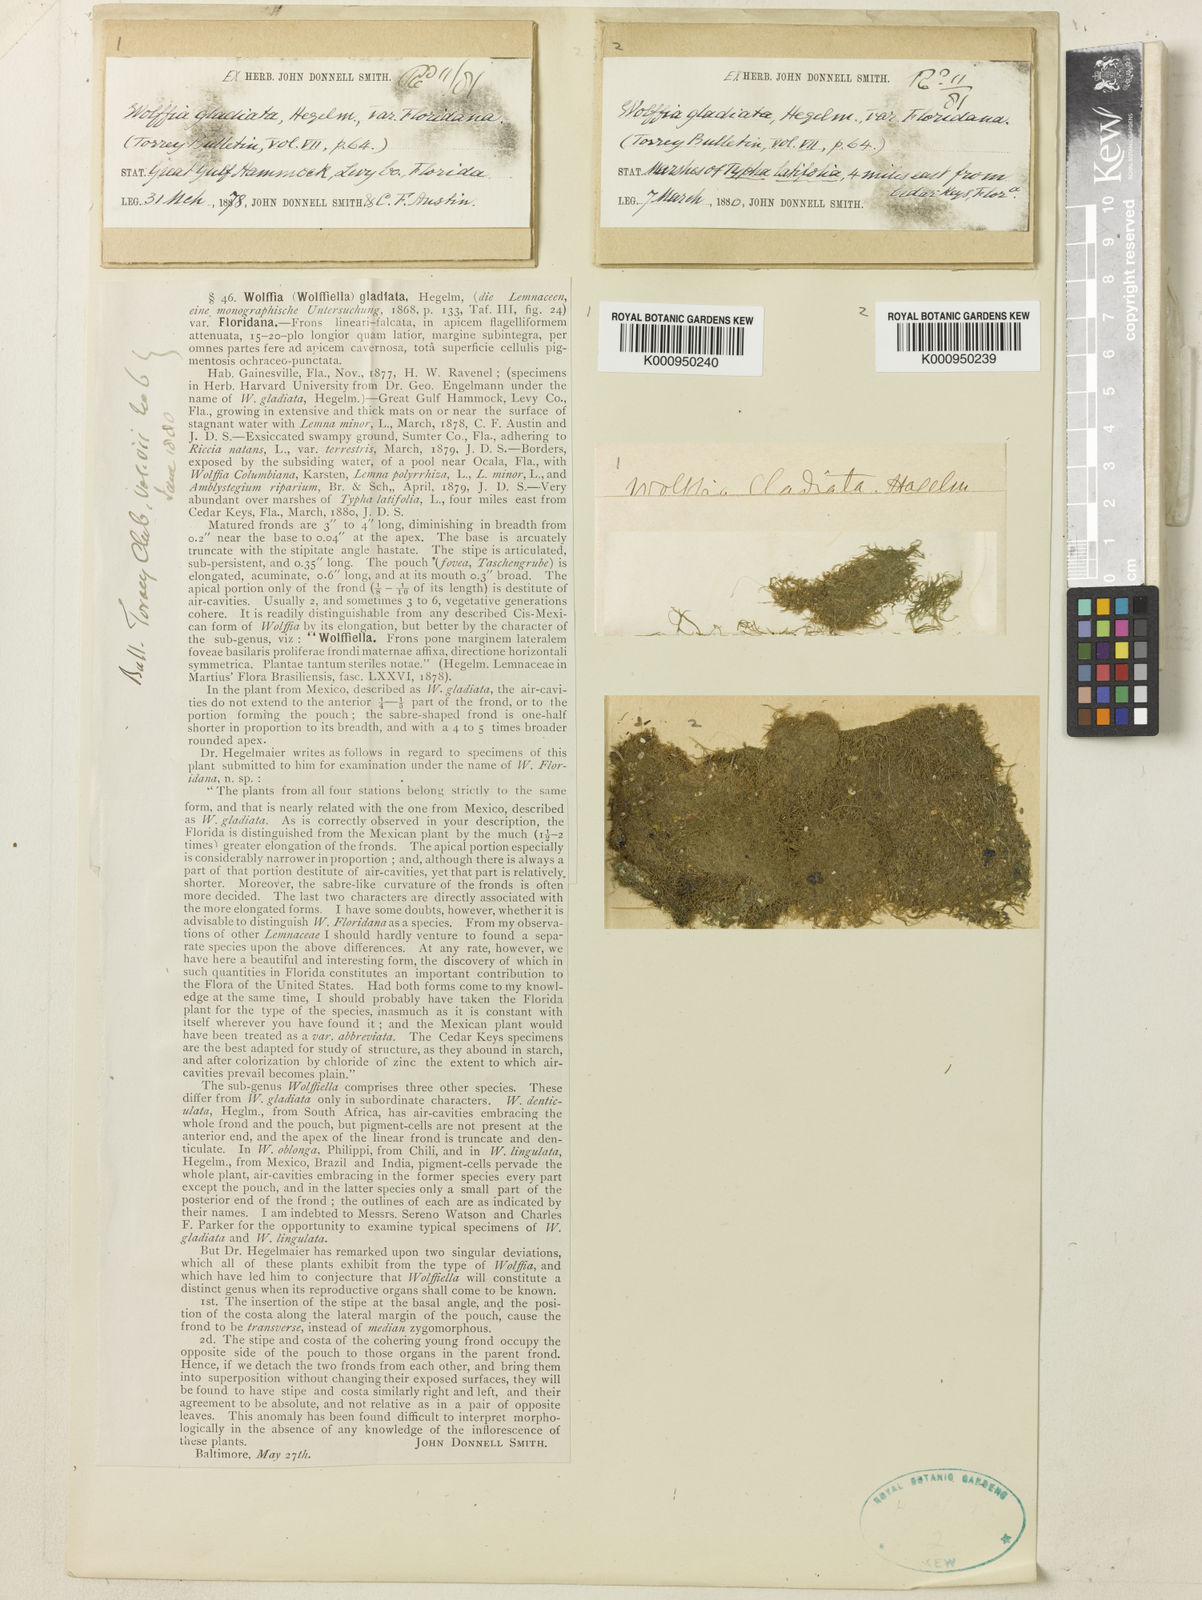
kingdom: Plantae
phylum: Tracheophyta
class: Liliopsida
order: Alismatales
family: Araceae
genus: Wolffiella
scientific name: Wolffiella gladiata
